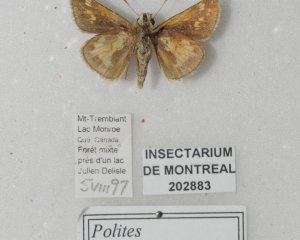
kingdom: Animalia
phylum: Arthropoda
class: Insecta
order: Lepidoptera
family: Hesperiidae
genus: Polites
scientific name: Polites coras
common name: Peck's Skipper
